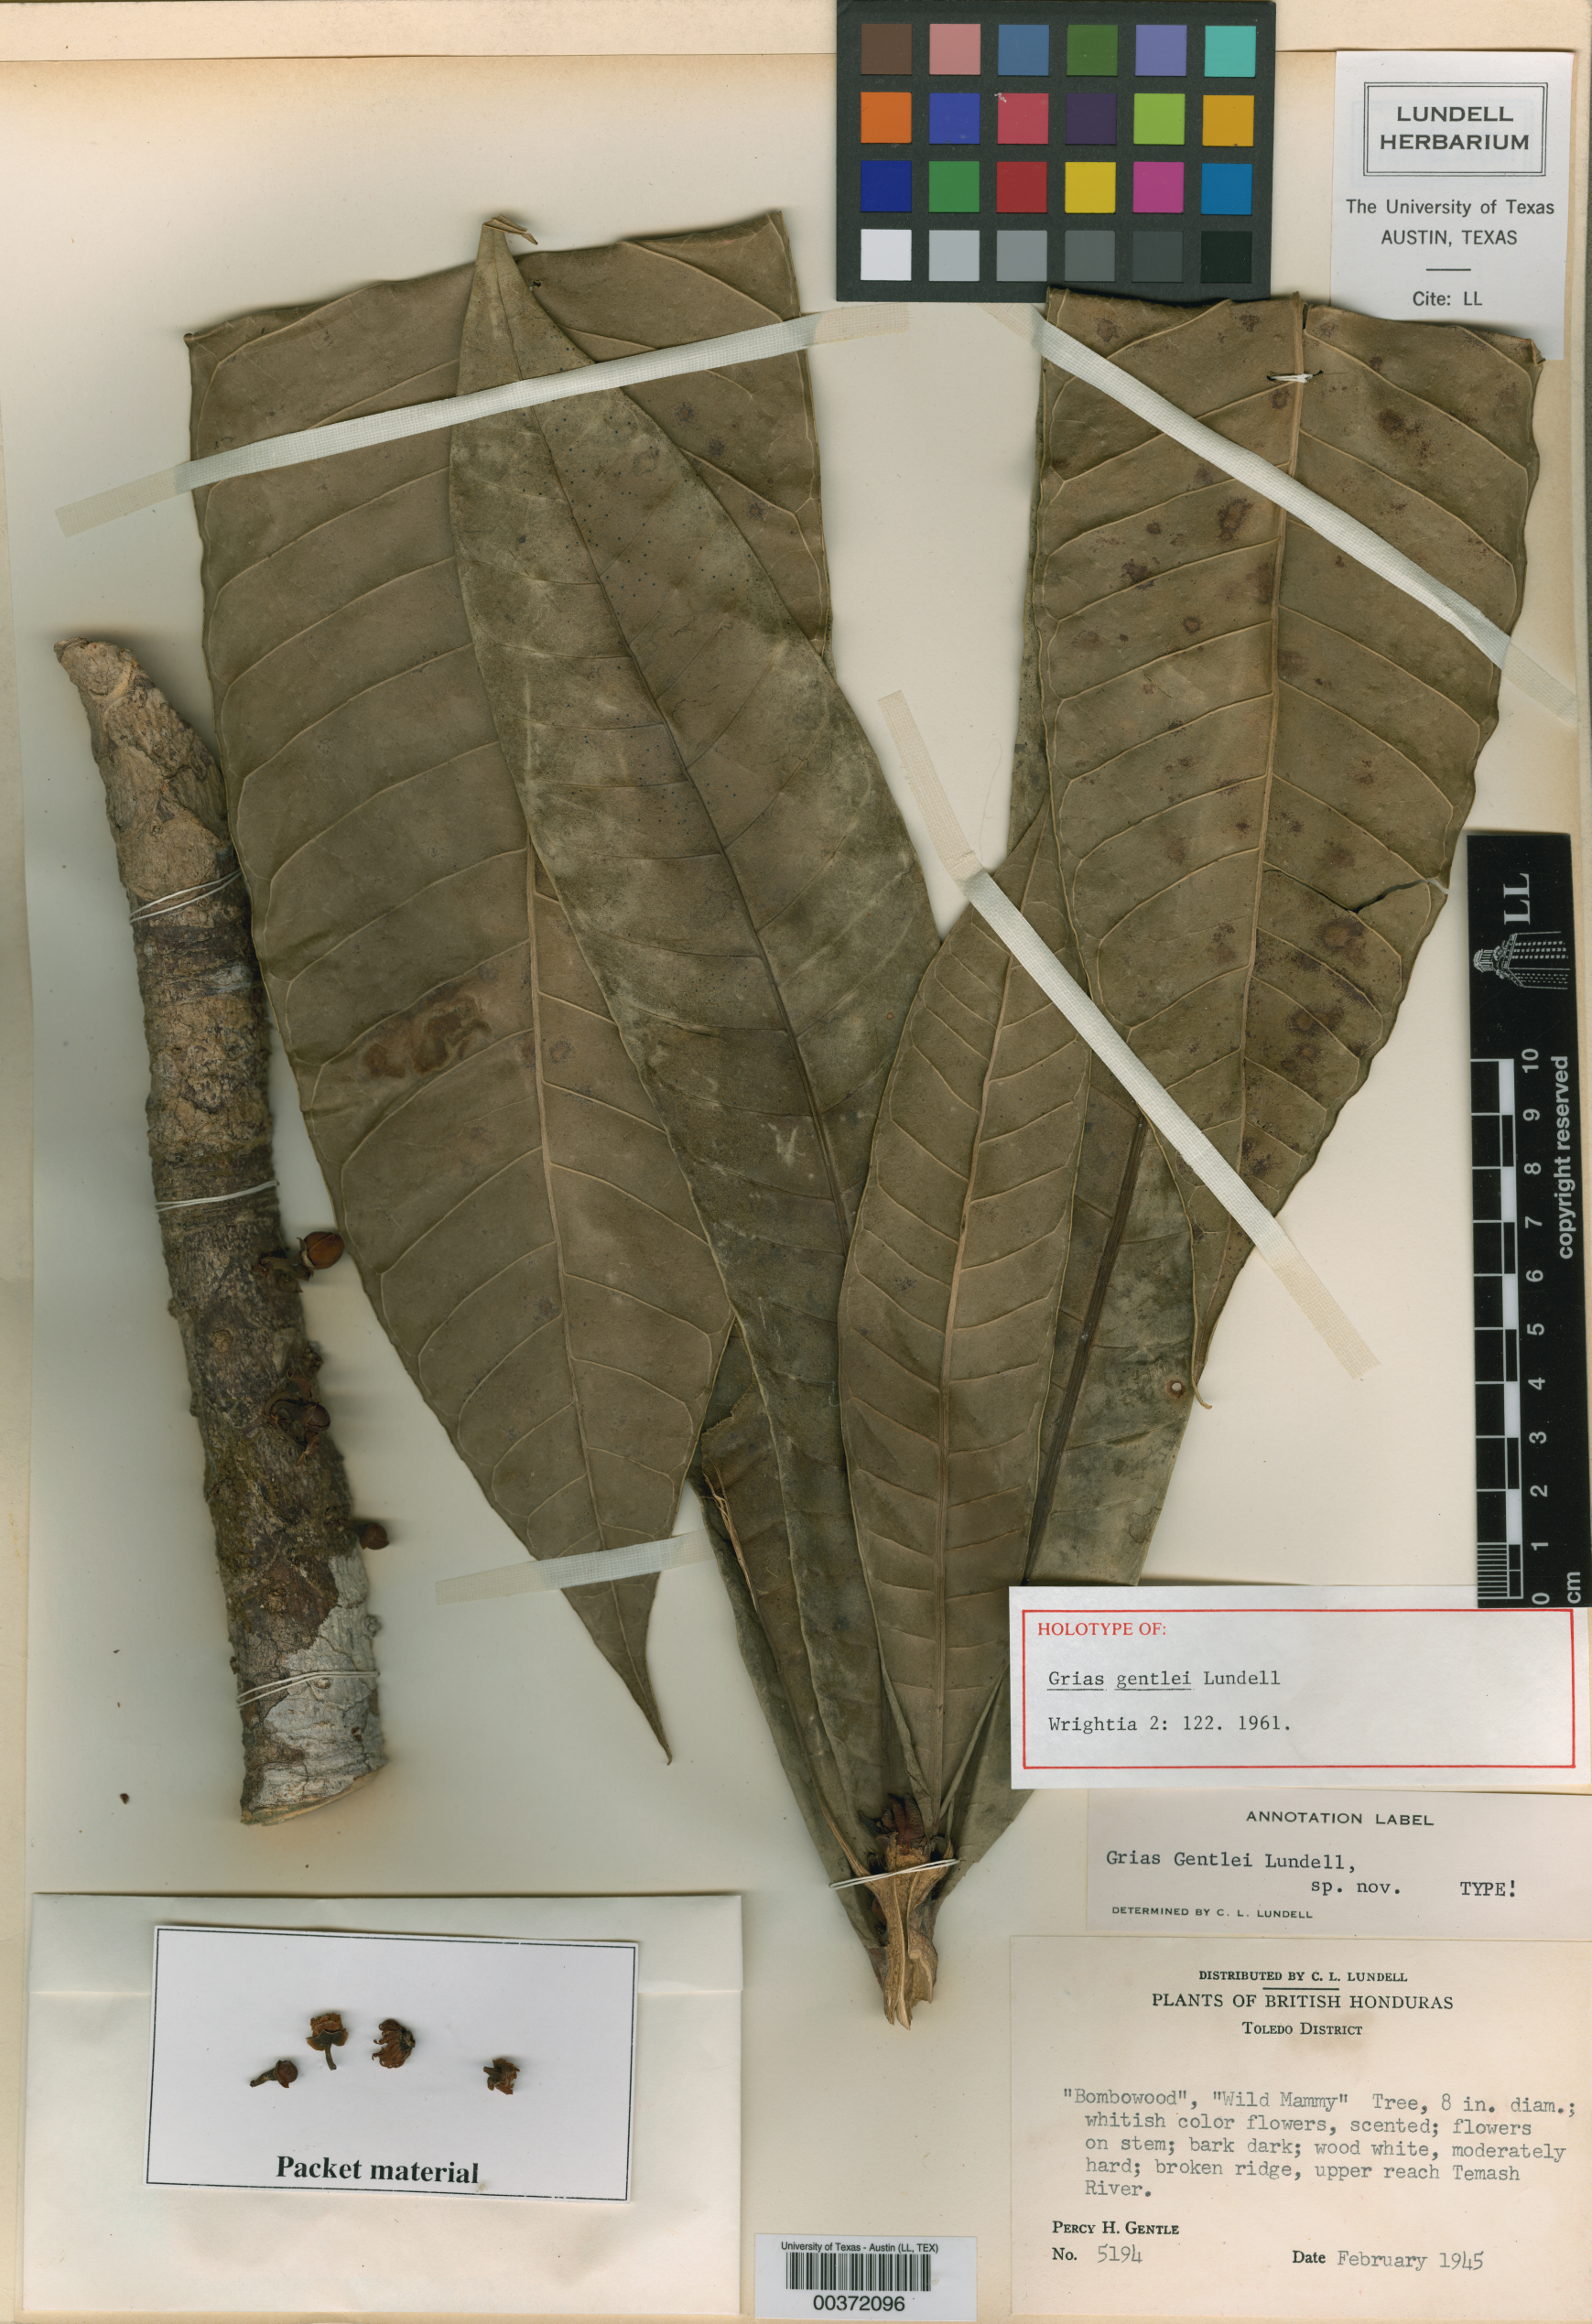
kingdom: Plantae
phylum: Tracheophyta
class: Magnoliopsida
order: Ericales
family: Lecythidaceae
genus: Grias
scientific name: Grias cauliflora
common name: Anchovy-pear
